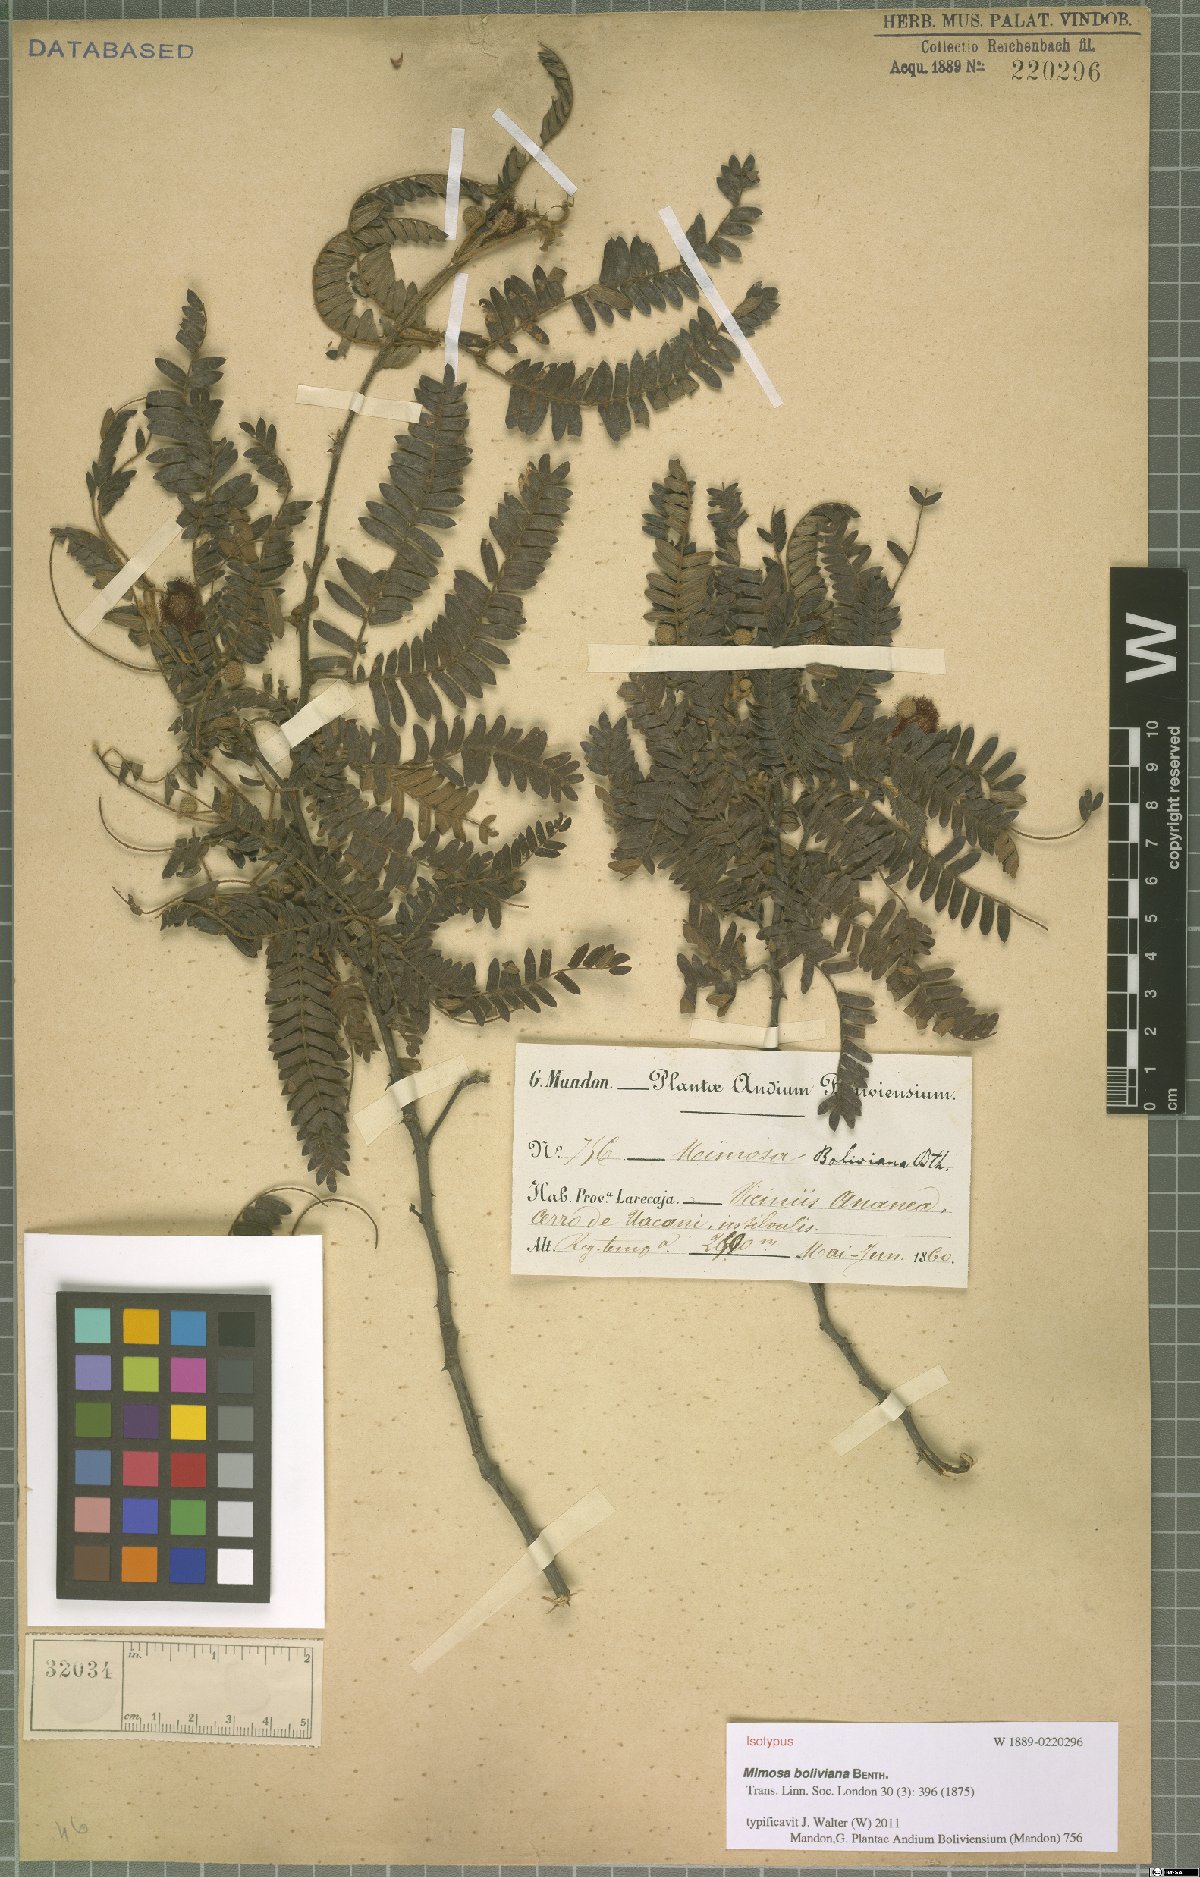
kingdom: Plantae
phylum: Tracheophyta
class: Magnoliopsida
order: Fabales
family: Fabaceae
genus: Mimosa
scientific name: Mimosa boliviana
